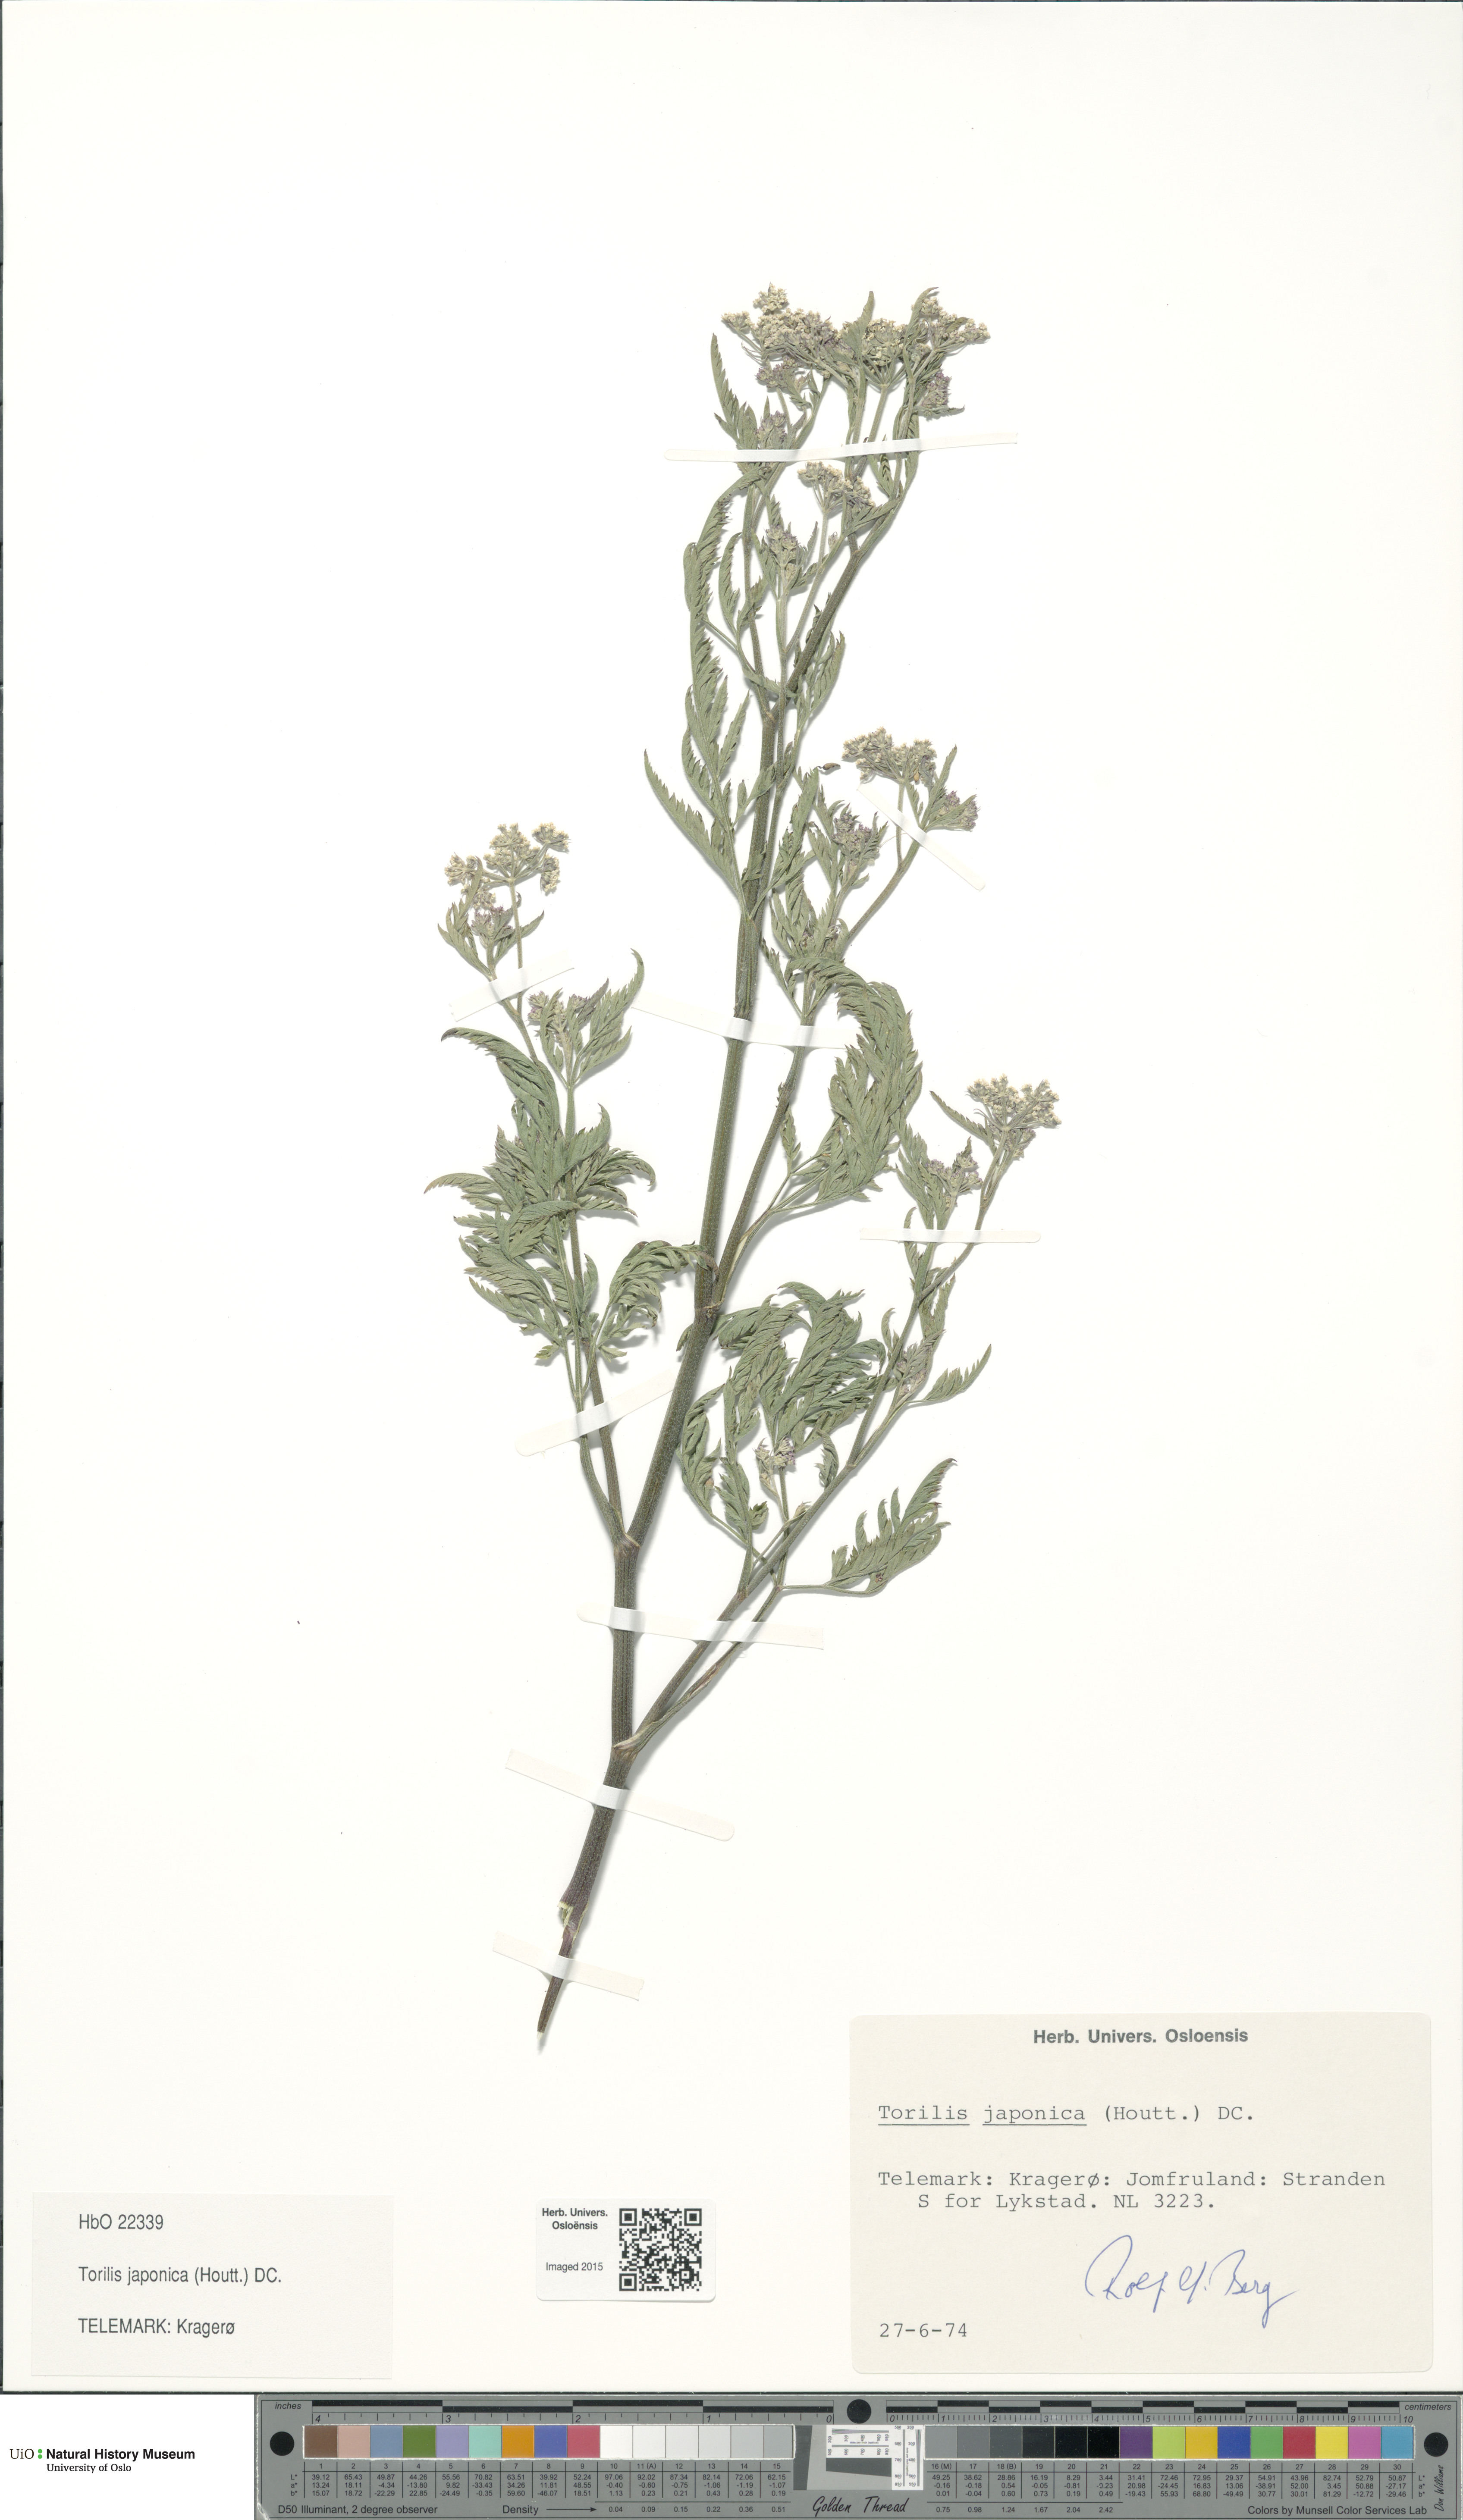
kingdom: Plantae
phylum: Tracheophyta
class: Magnoliopsida
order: Apiales
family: Apiaceae
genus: Torilis
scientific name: Torilis japonica
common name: Upright hedge-parsley
